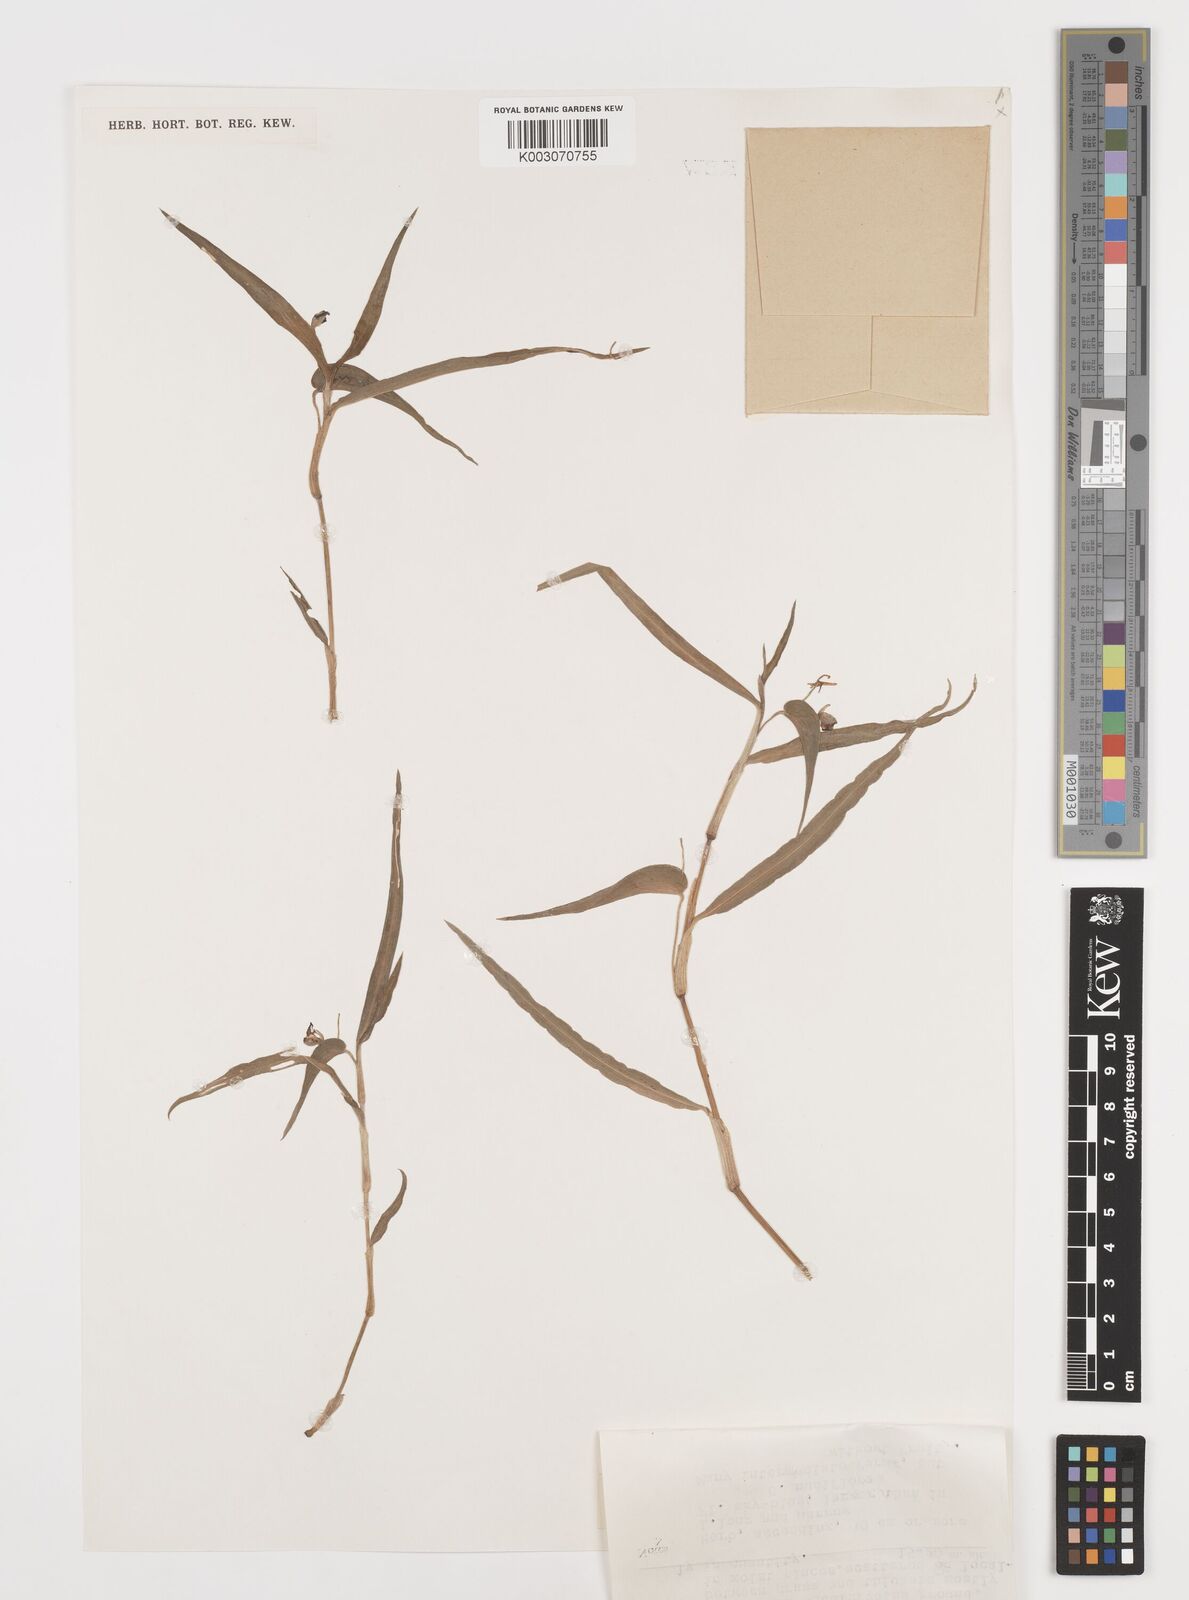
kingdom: Plantae
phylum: Tracheophyta
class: Liliopsida
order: Commelinales
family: Commelinaceae
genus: Commelina
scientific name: Commelina longifolia
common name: Longleaf dayflower
